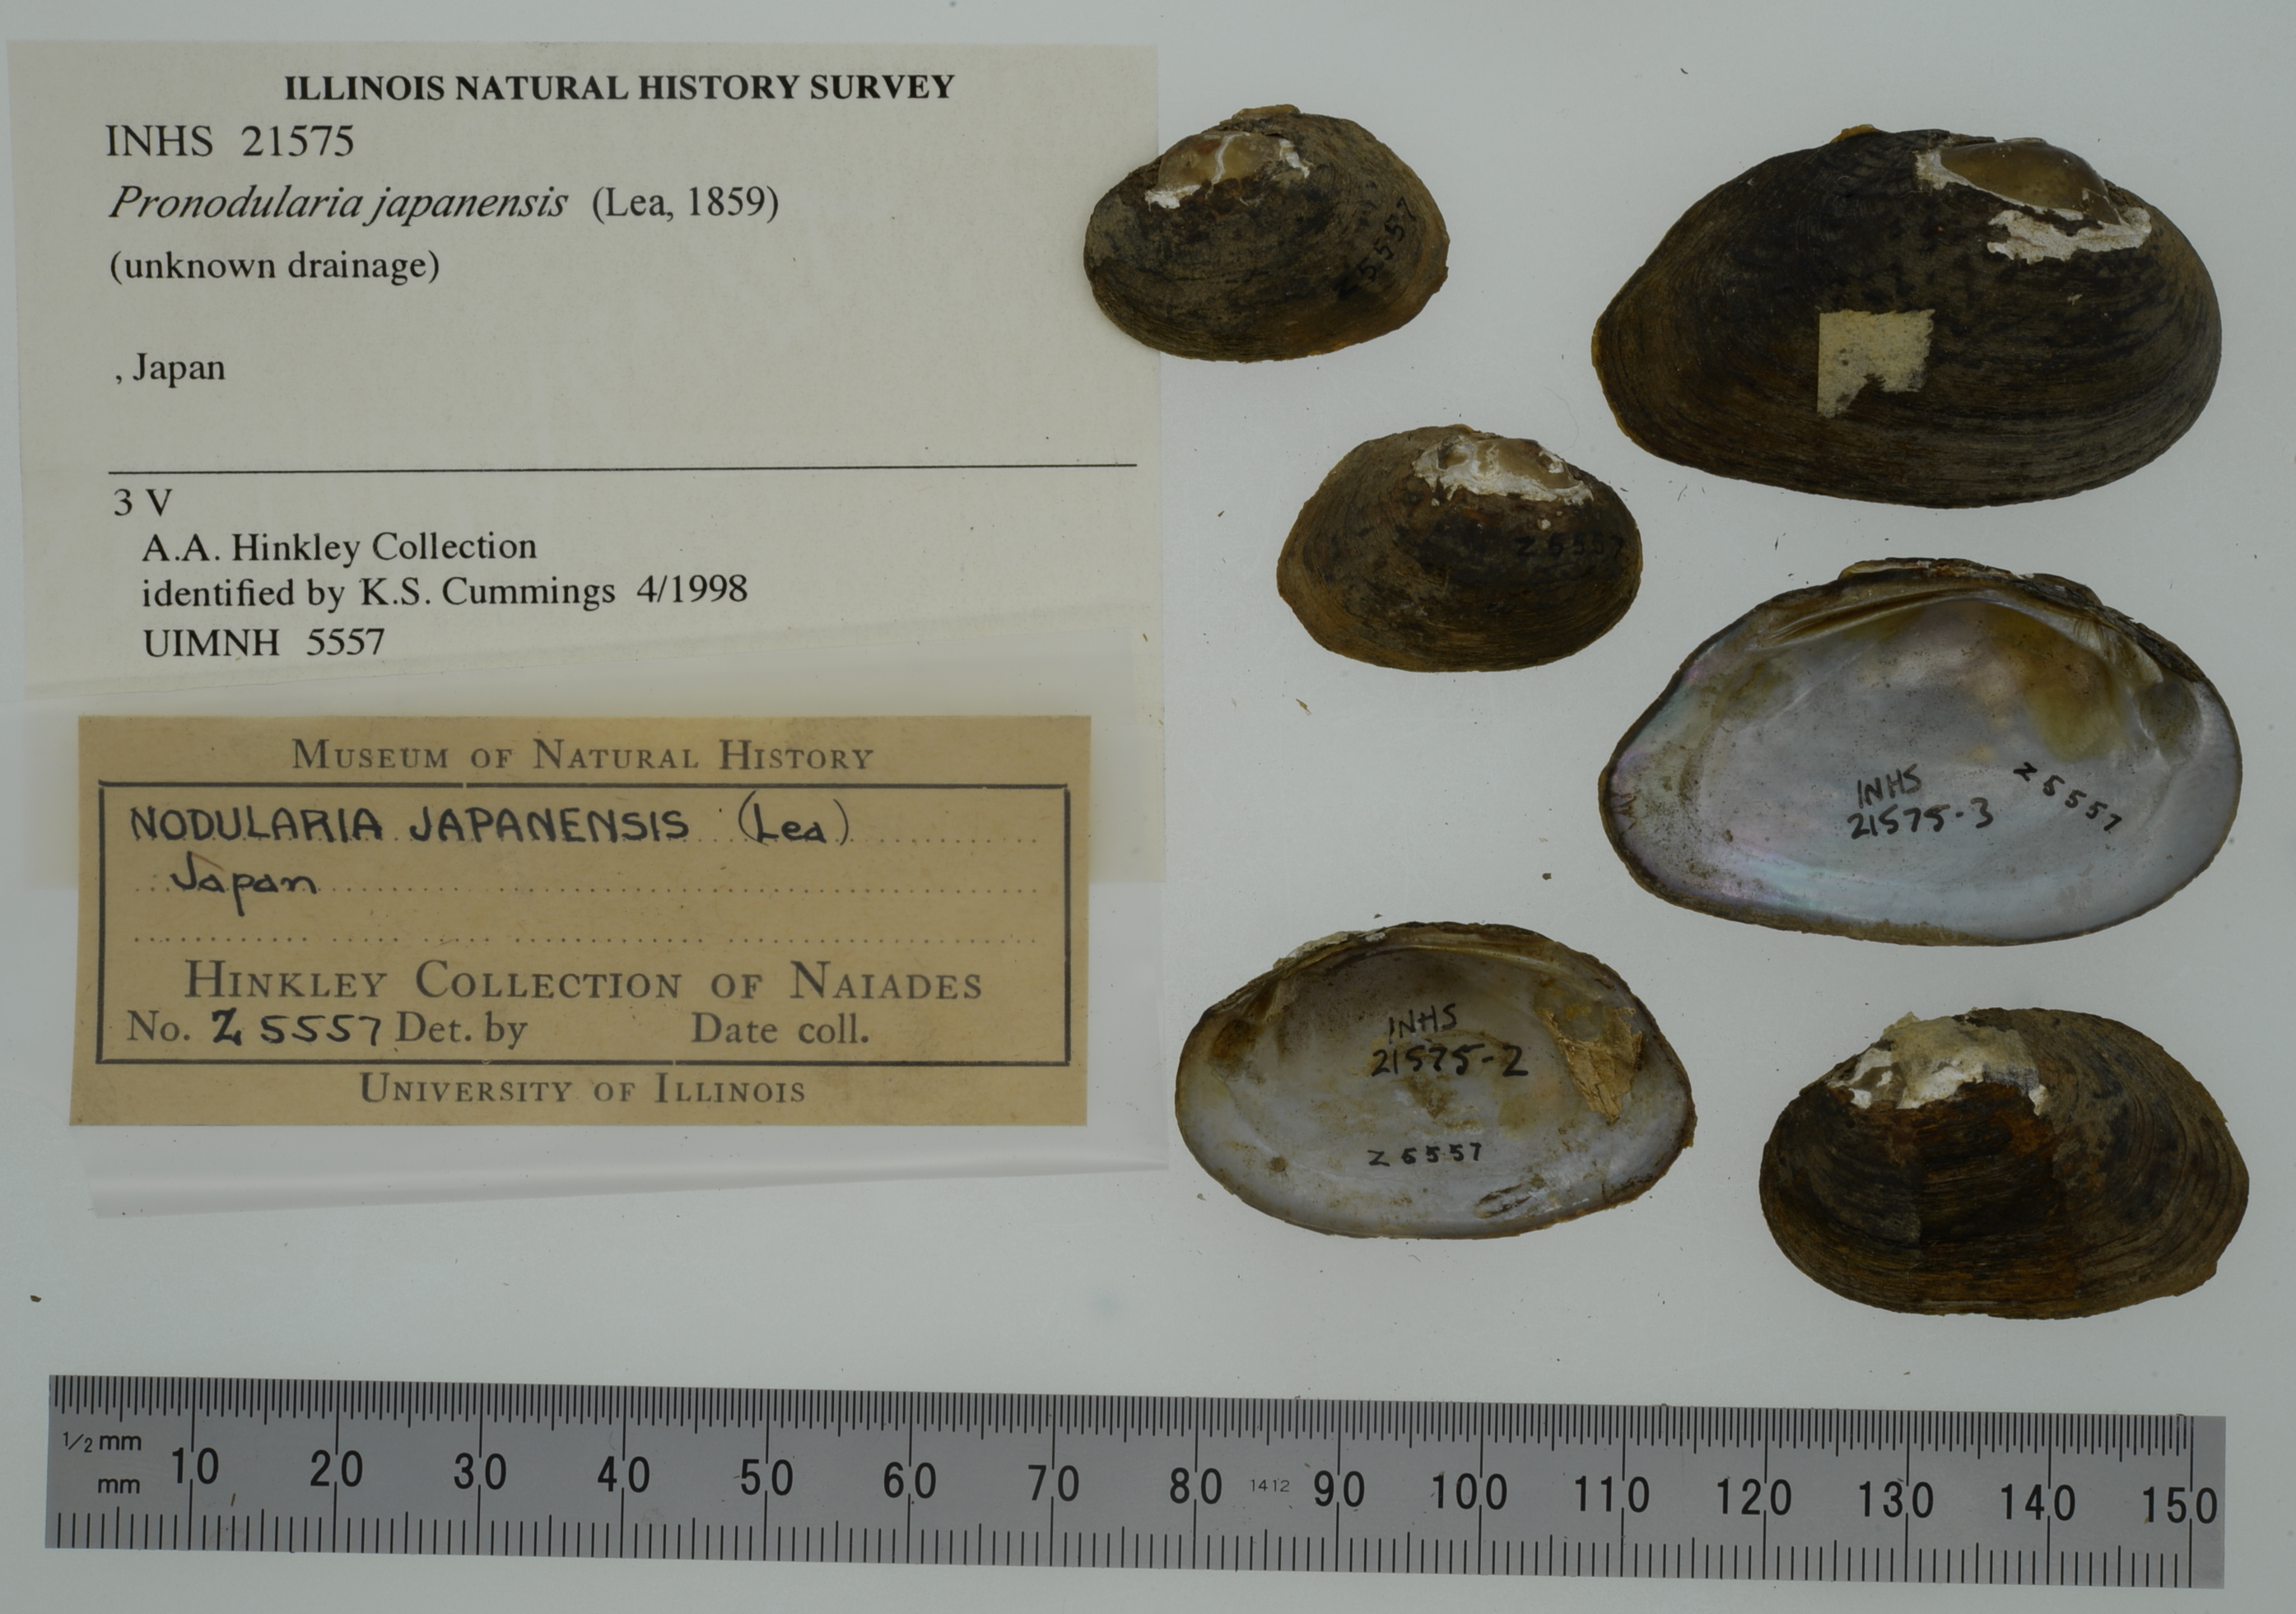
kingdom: Animalia
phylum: Mollusca
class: Bivalvia
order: Unionida
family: Unionidae
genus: Pronodularia
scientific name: Pronodularia japanensis
